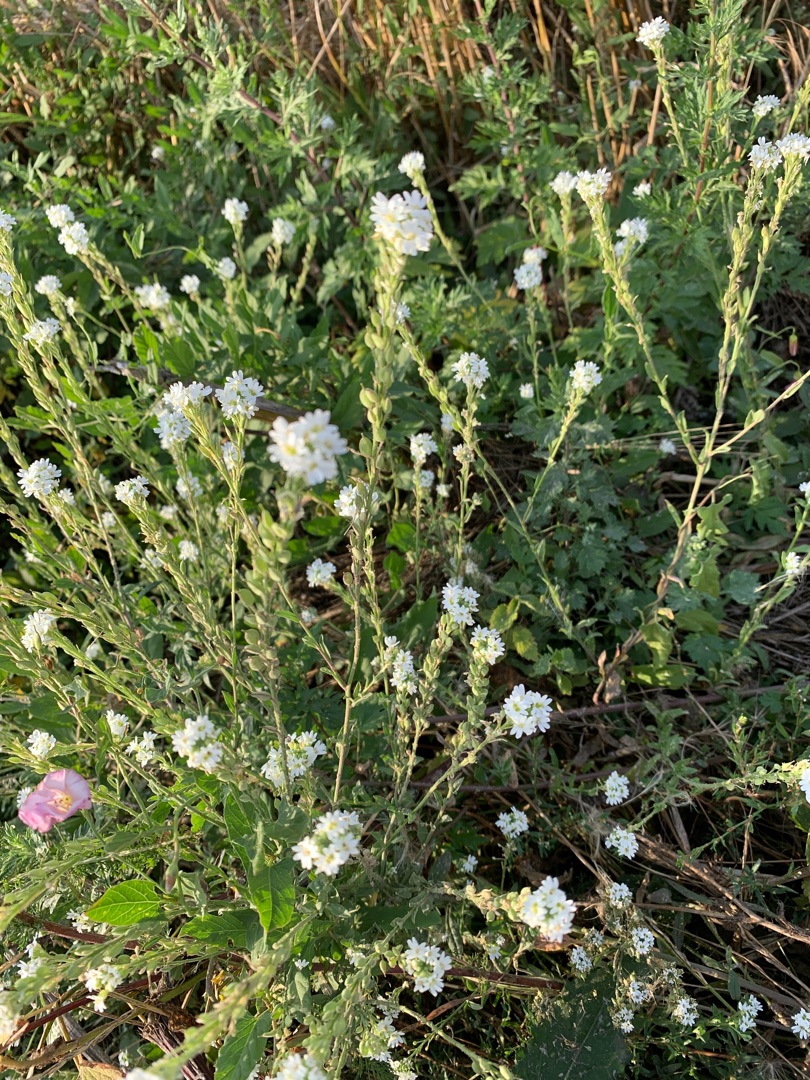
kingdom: Plantae
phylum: Tracheophyta
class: Magnoliopsida
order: Brassicales
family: Brassicaceae
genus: Berteroa
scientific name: Berteroa incana
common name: Kløvplade
